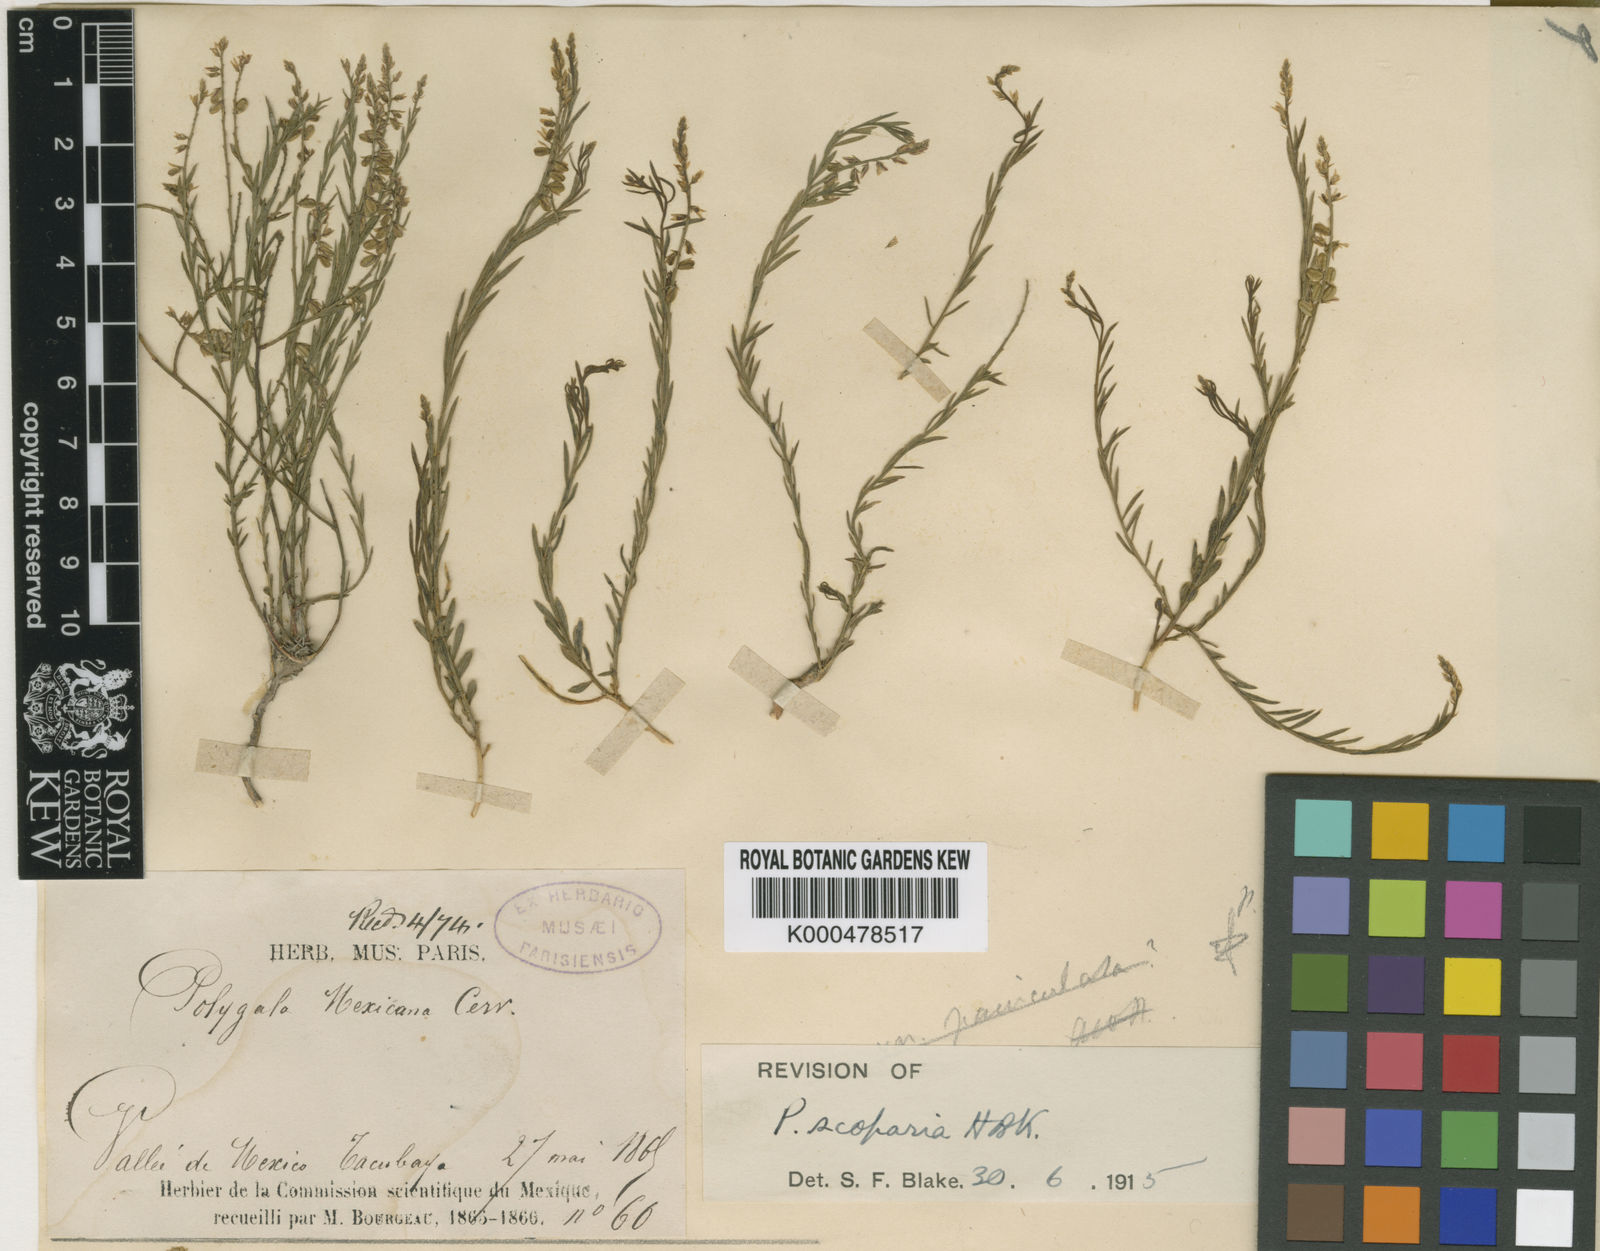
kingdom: Plantae
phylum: Tracheophyta
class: Magnoliopsida
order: Fabales
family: Polygalaceae
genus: Polygala
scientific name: Polygala salviniana
